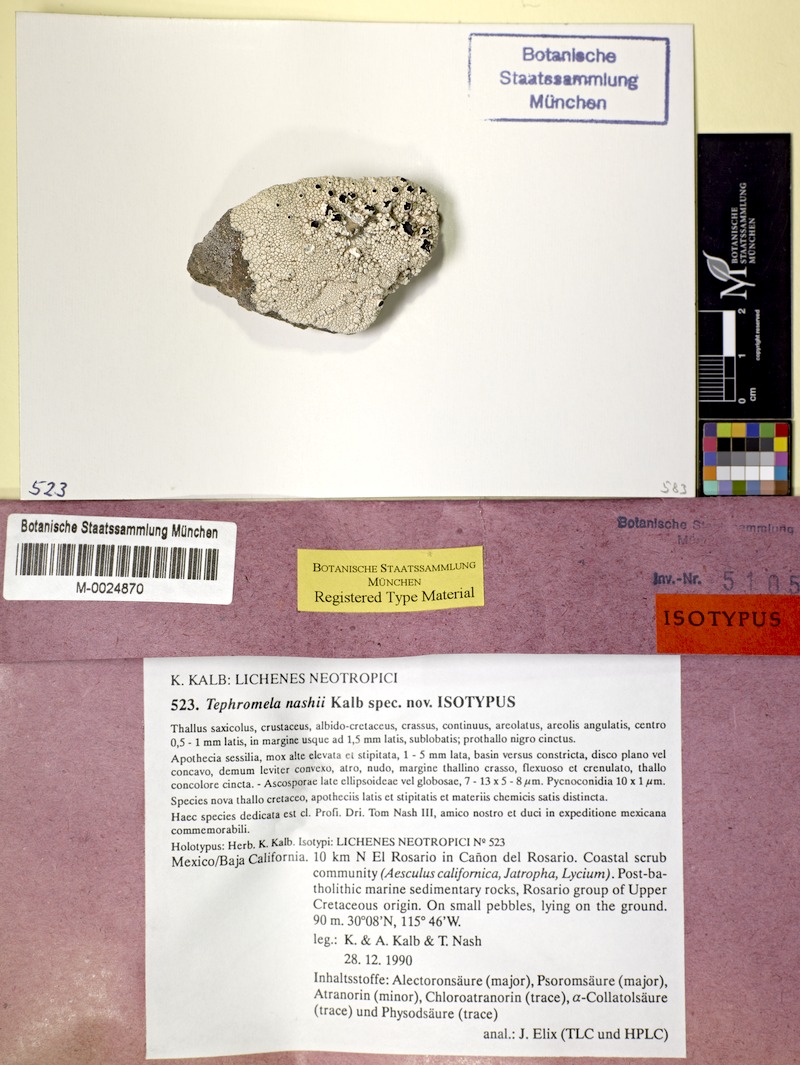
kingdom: Fungi
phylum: Ascomycota
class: Lecanoromycetes
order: Lecanorales
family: Tephromelataceae
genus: Tephromela
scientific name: Tephromela nashii
